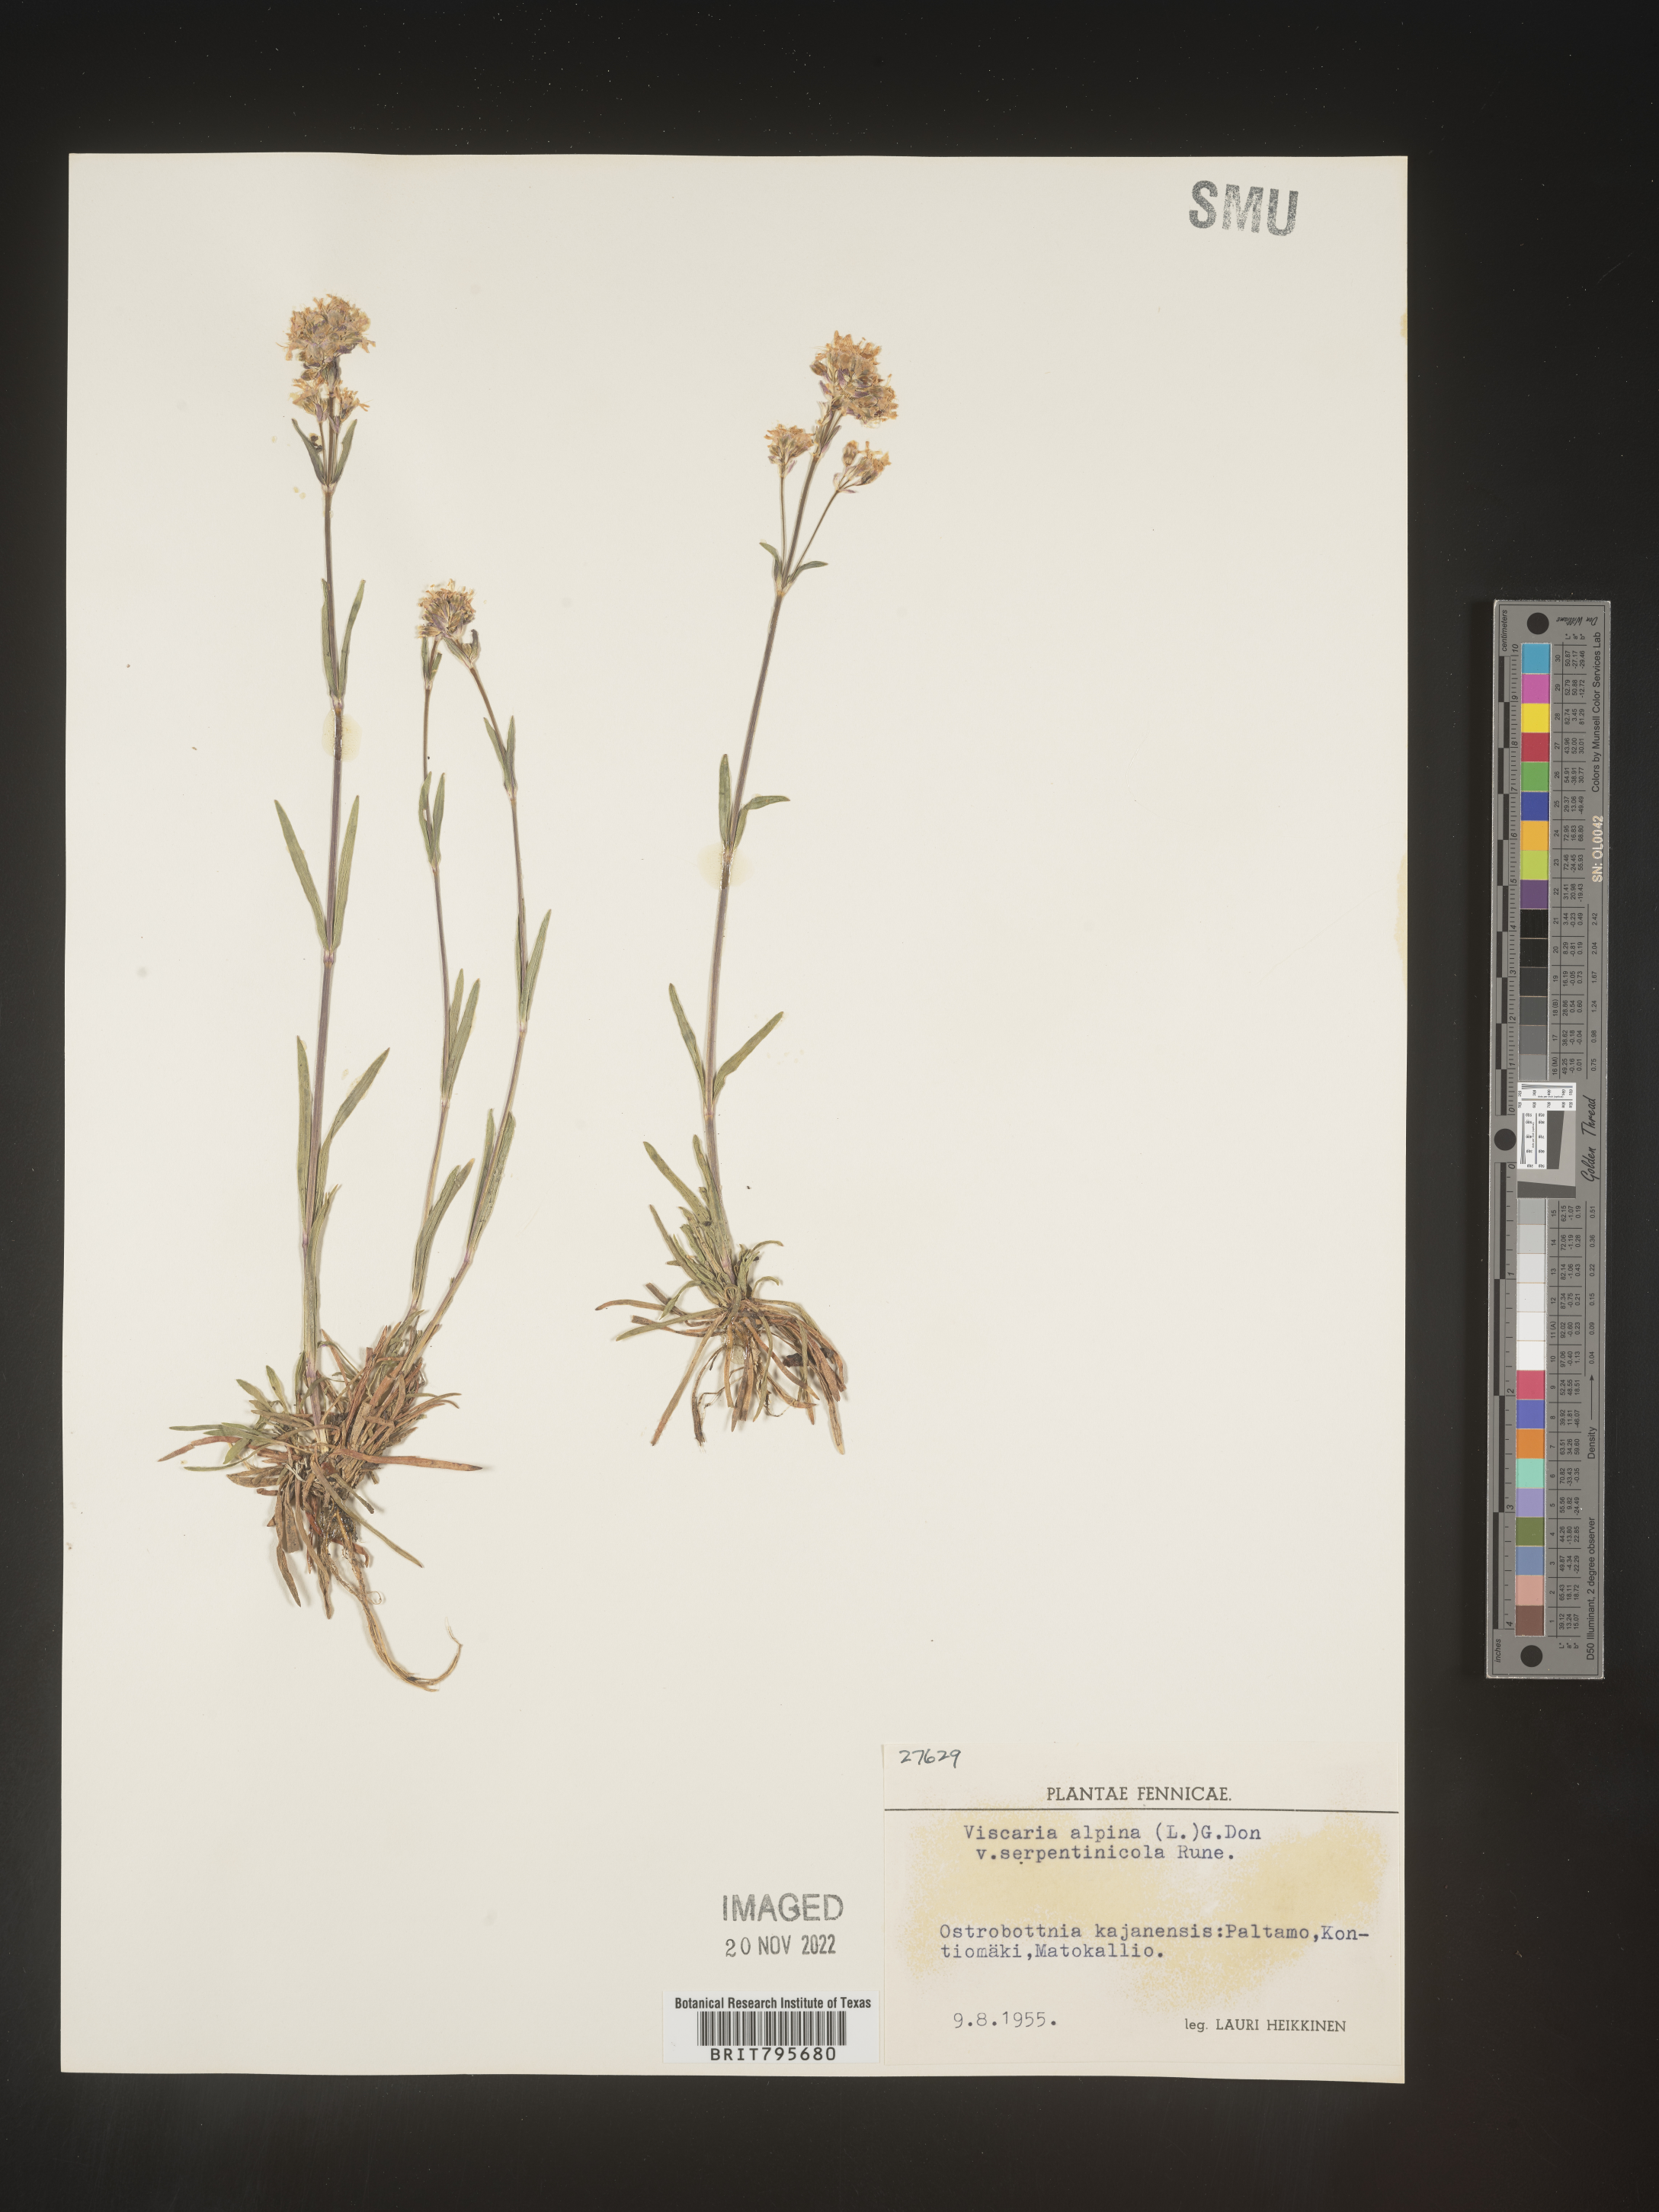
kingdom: Plantae
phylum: Tracheophyta
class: Magnoliopsida
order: Caryophyllales
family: Caryophyllaceae
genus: Viscaria
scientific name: Viscaria
